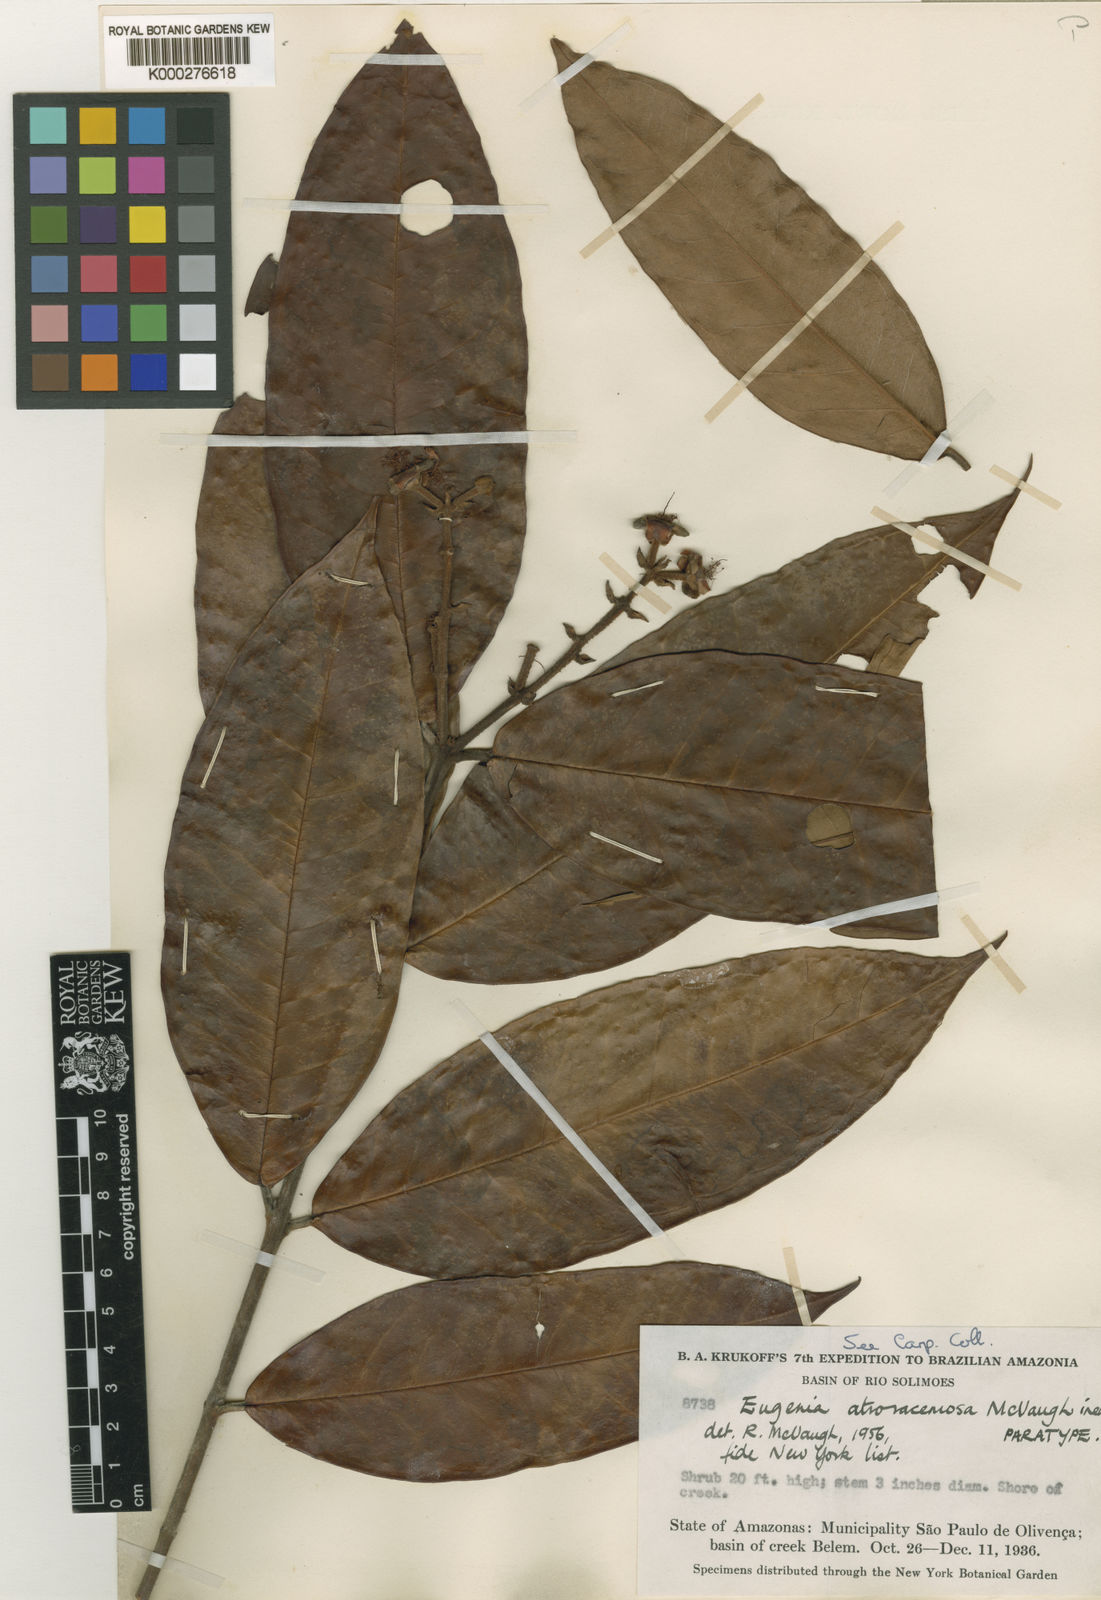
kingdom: Plantae
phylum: Tracheophyta
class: Magnoliopsida
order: Myrtales
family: Myrtaceae
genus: Eugenia
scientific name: Eugenia atroracemosa
